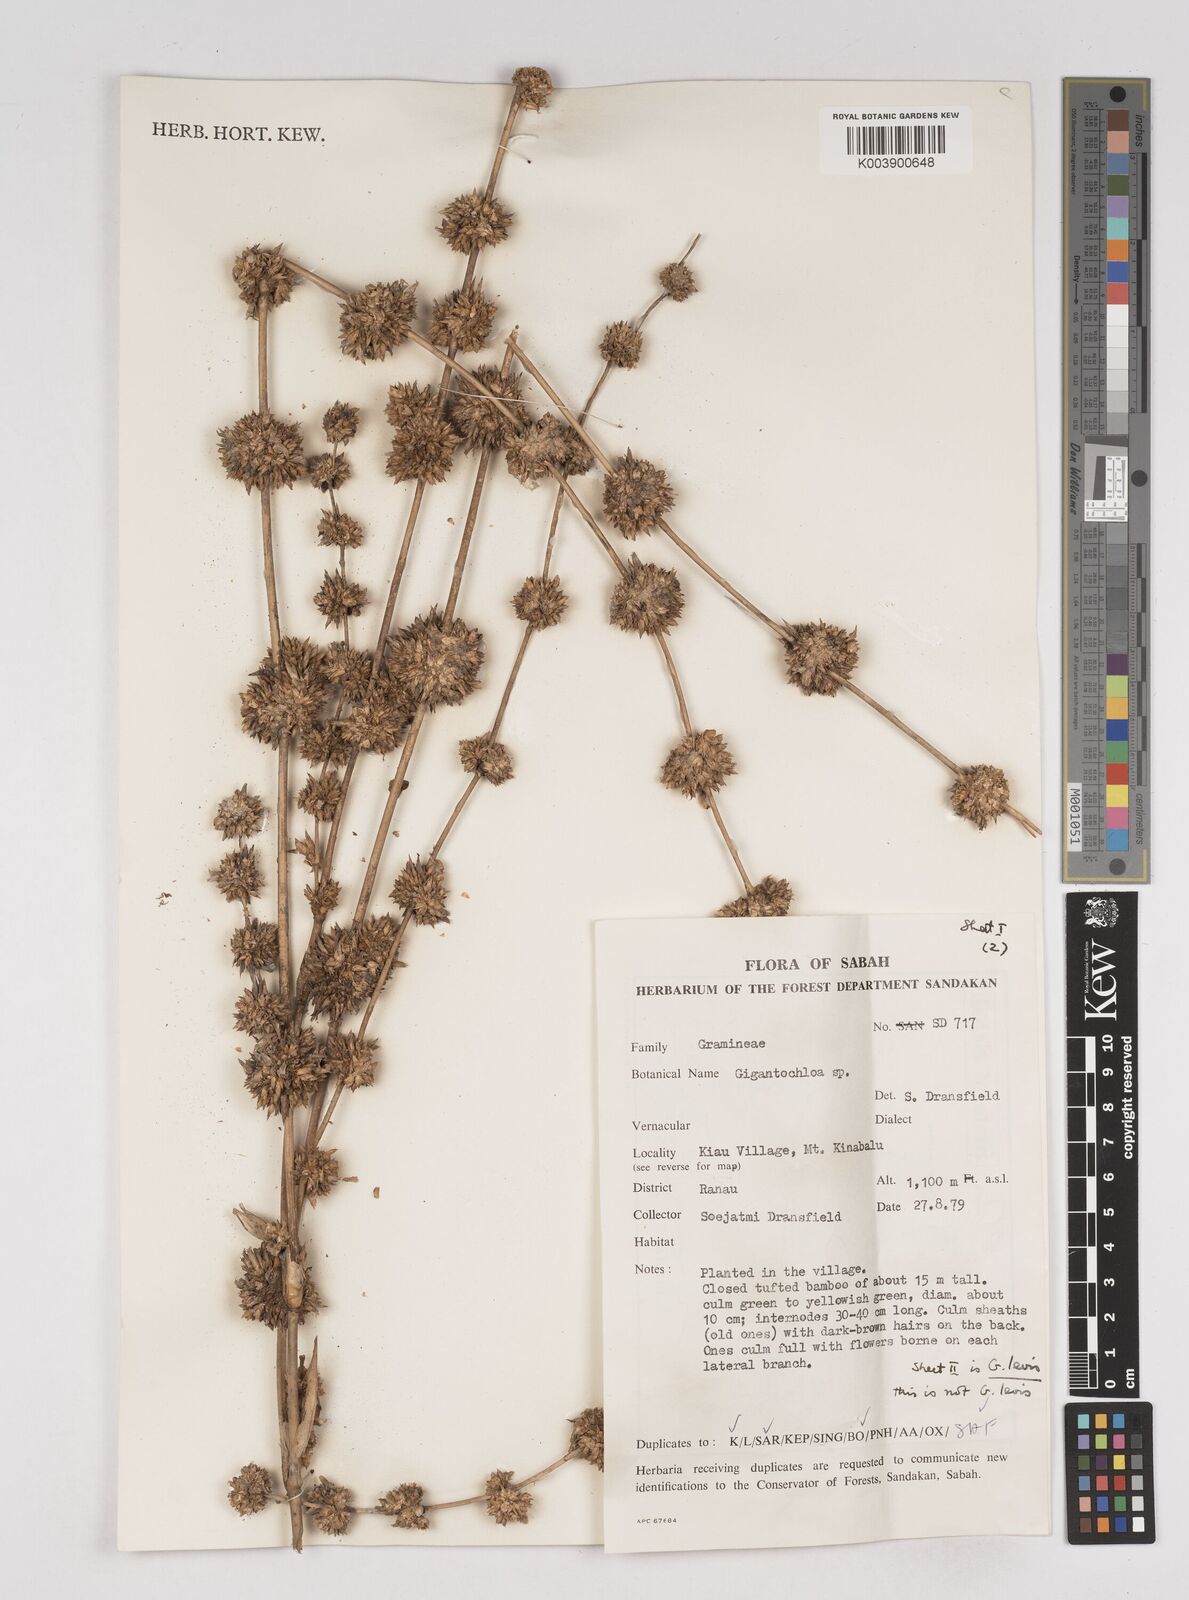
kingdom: Plantae
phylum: Tracheophyta
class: Liliopsida
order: Poales
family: Poaceae
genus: Gigantochloa
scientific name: Gigantochloa
